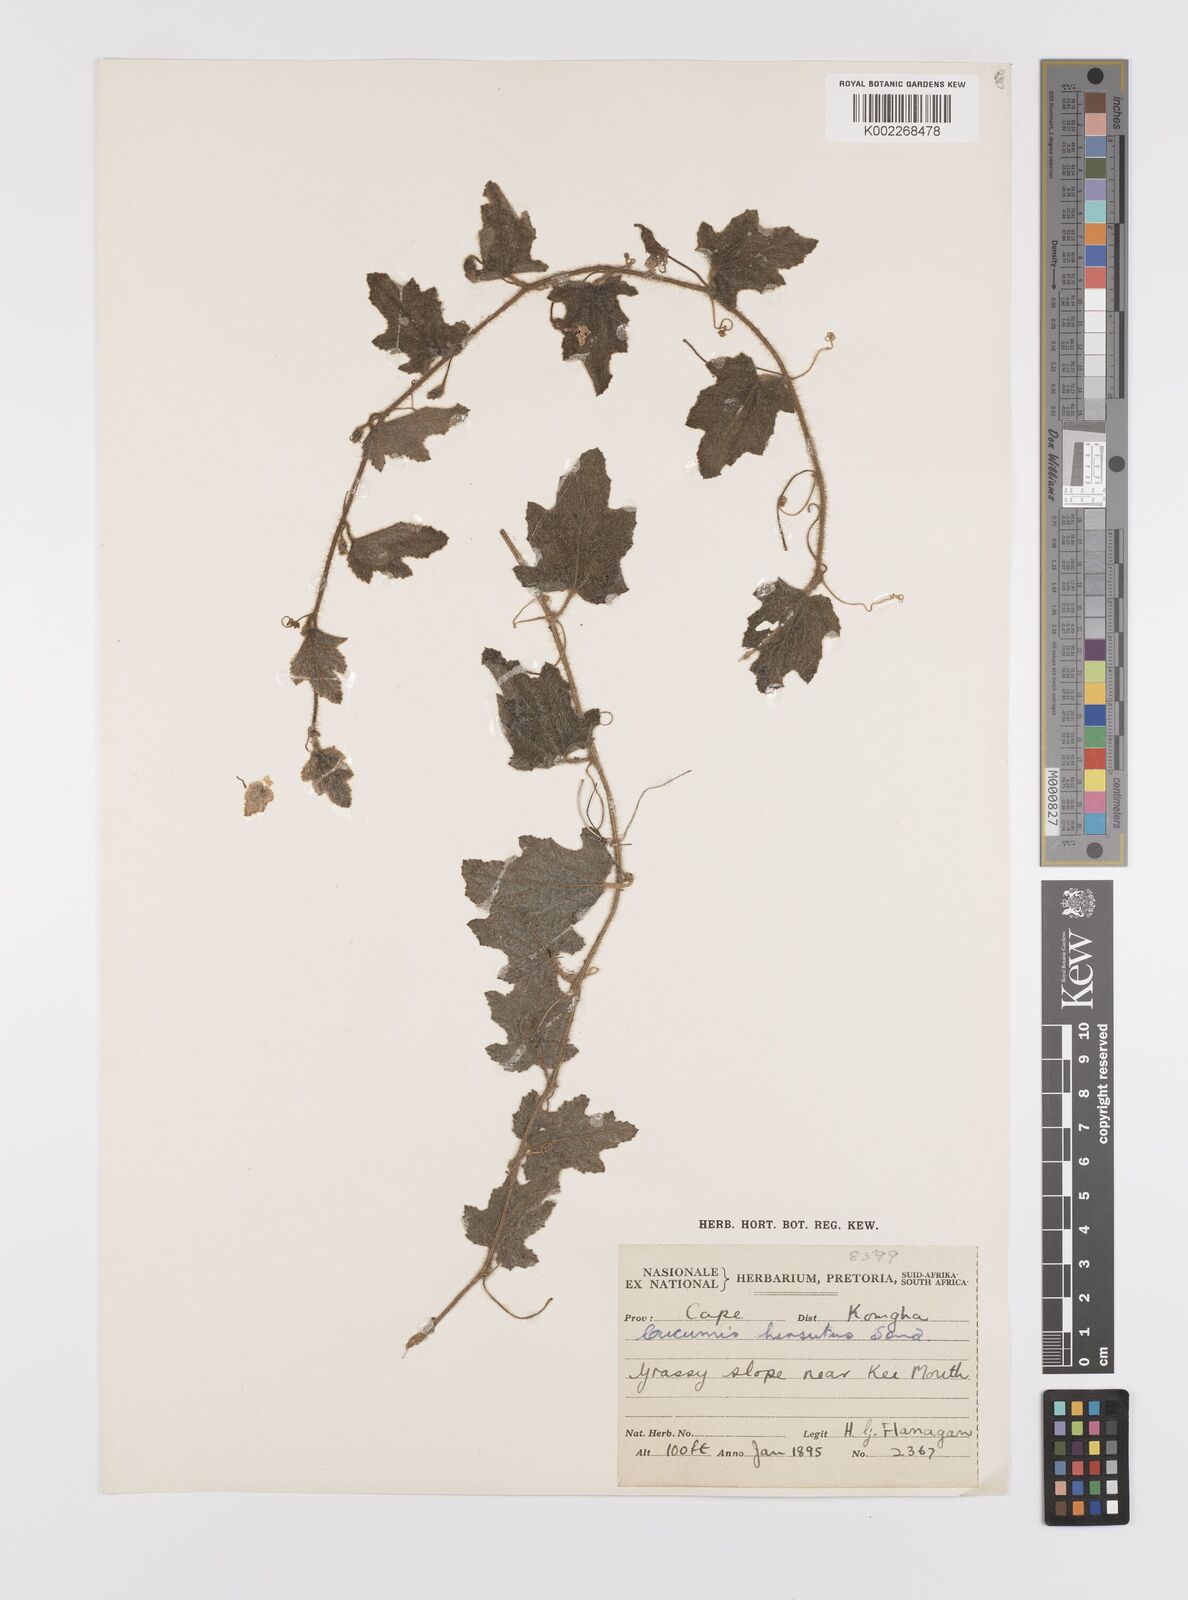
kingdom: Plantae
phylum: Tracheophyta
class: Magnoliopsida
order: Cucurbitales
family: Cucurbitaceae
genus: Cucumis
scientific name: Cucumis hirsutus
